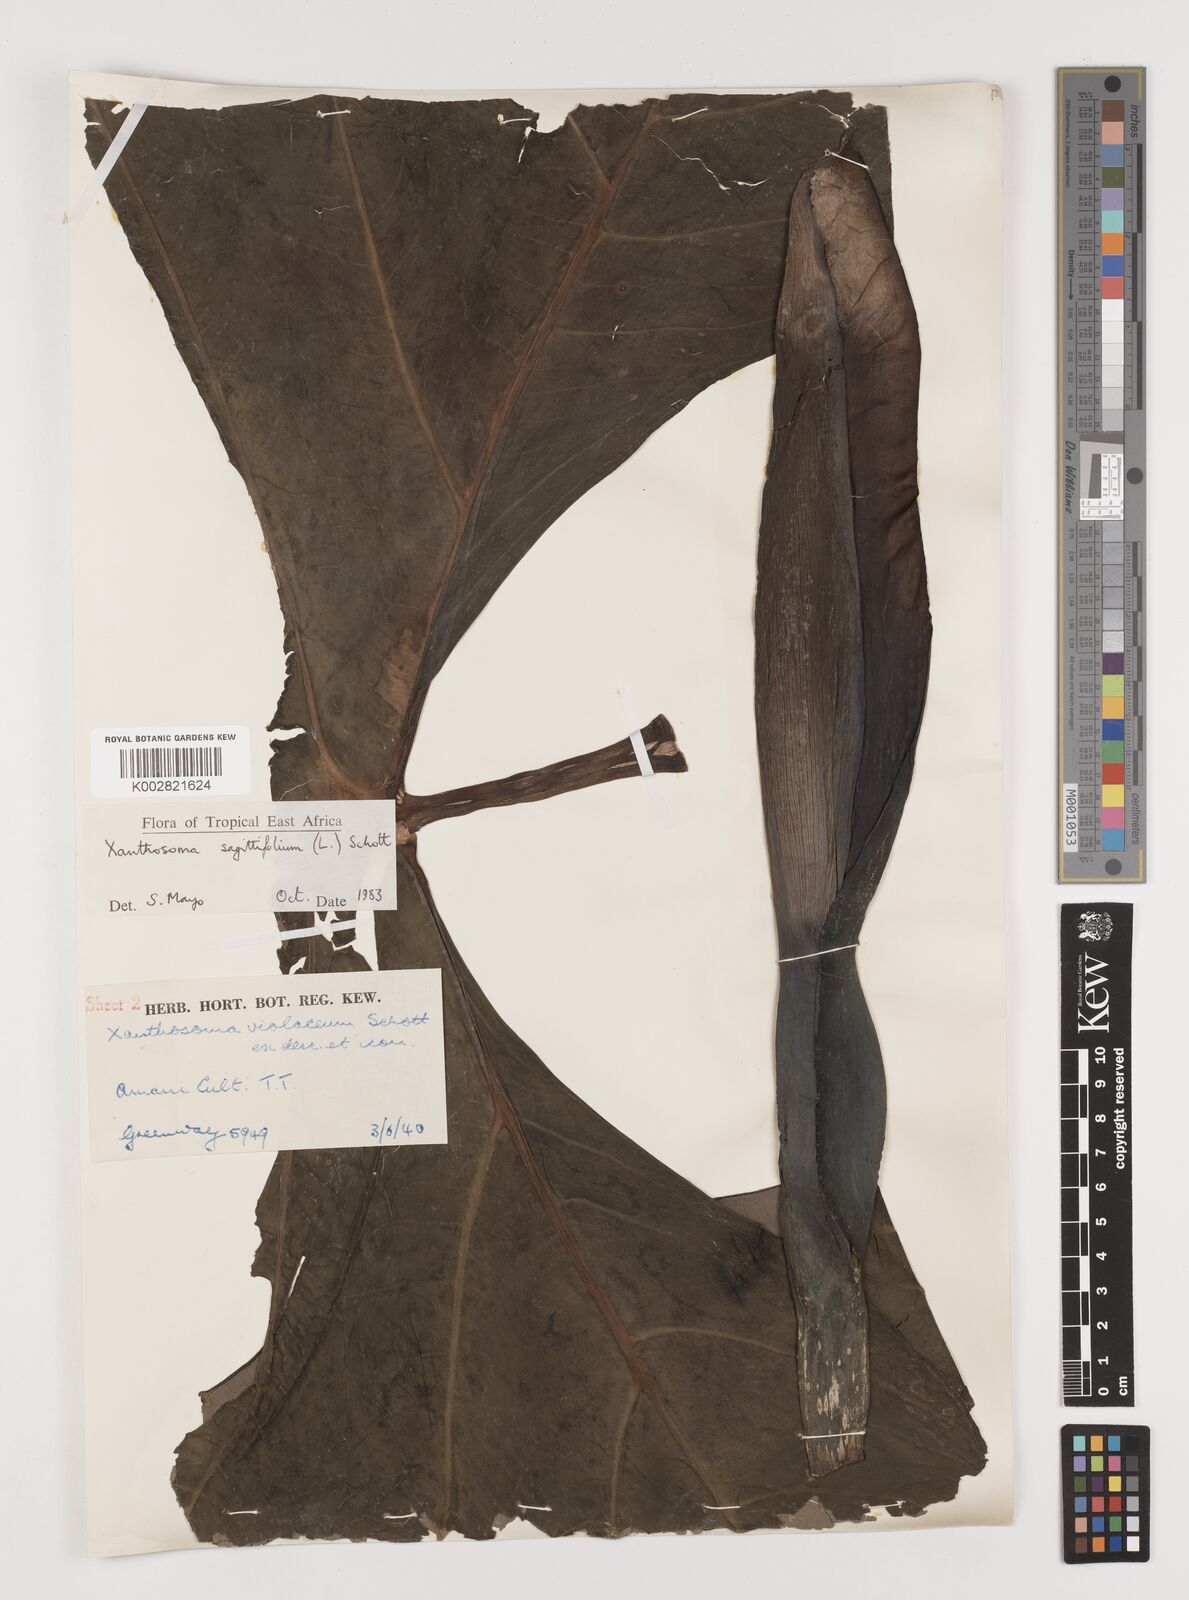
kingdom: Plantae
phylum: Tracheophyta
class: Liliopsida
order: Alismatales
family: Araceae
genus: Xanthosoma
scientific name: Xanthosoma sagittifolium
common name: Arrowleaf elephant's ear
